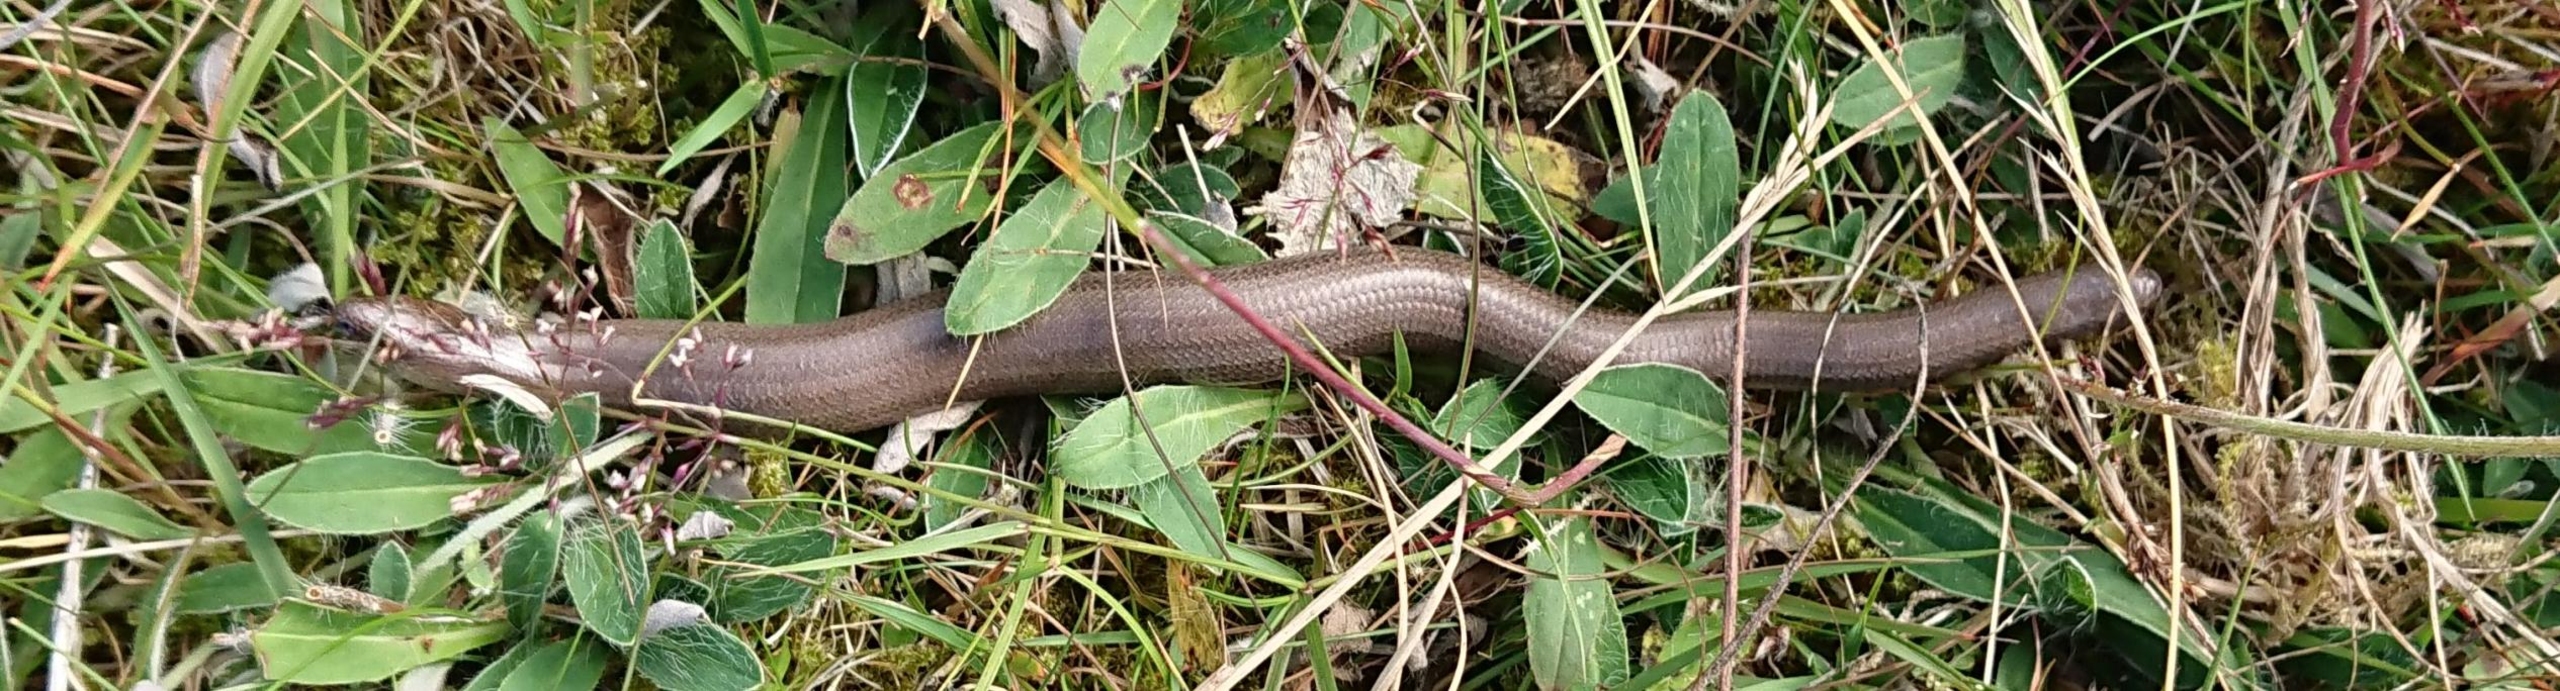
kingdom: Animalia
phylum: Chordata
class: Squamata
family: Anguidae
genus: Anguis
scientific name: Anguis fragilis
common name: Stålorm
